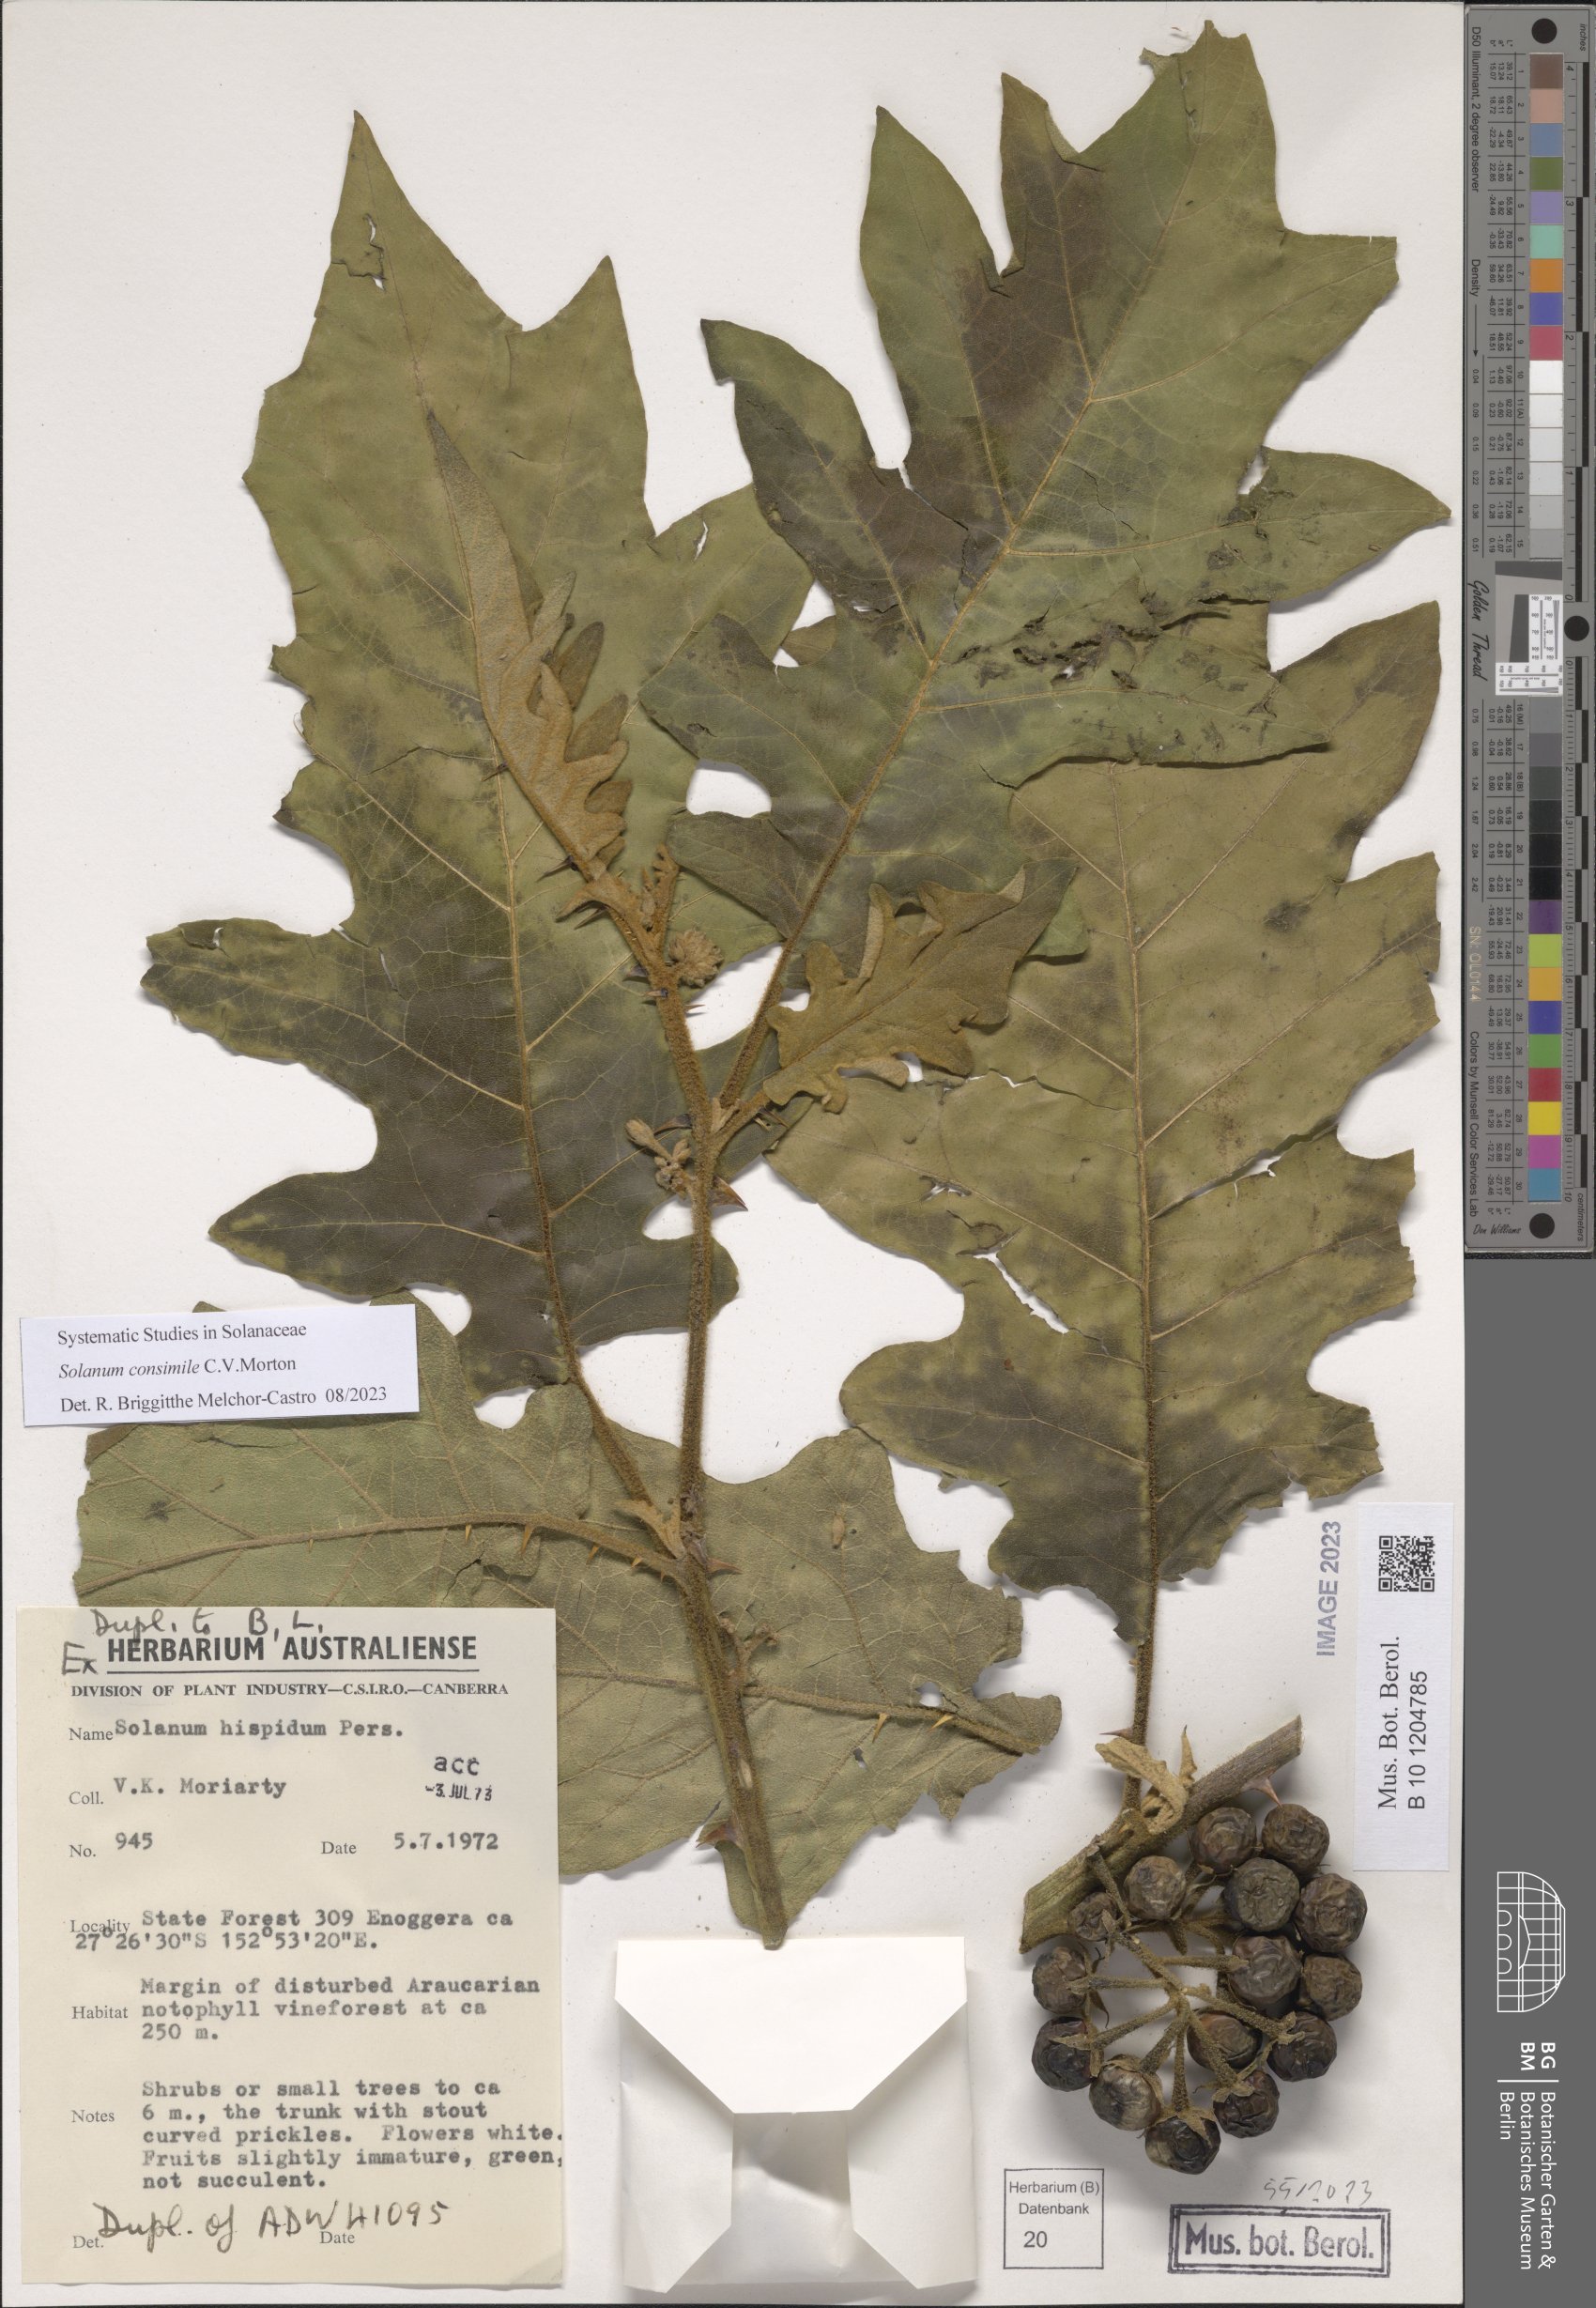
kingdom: Plantae
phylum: Tracheophyta
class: Magnoliopsida
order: Solanales
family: Solanaceae
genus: Solanum
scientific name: Solanum consimile
